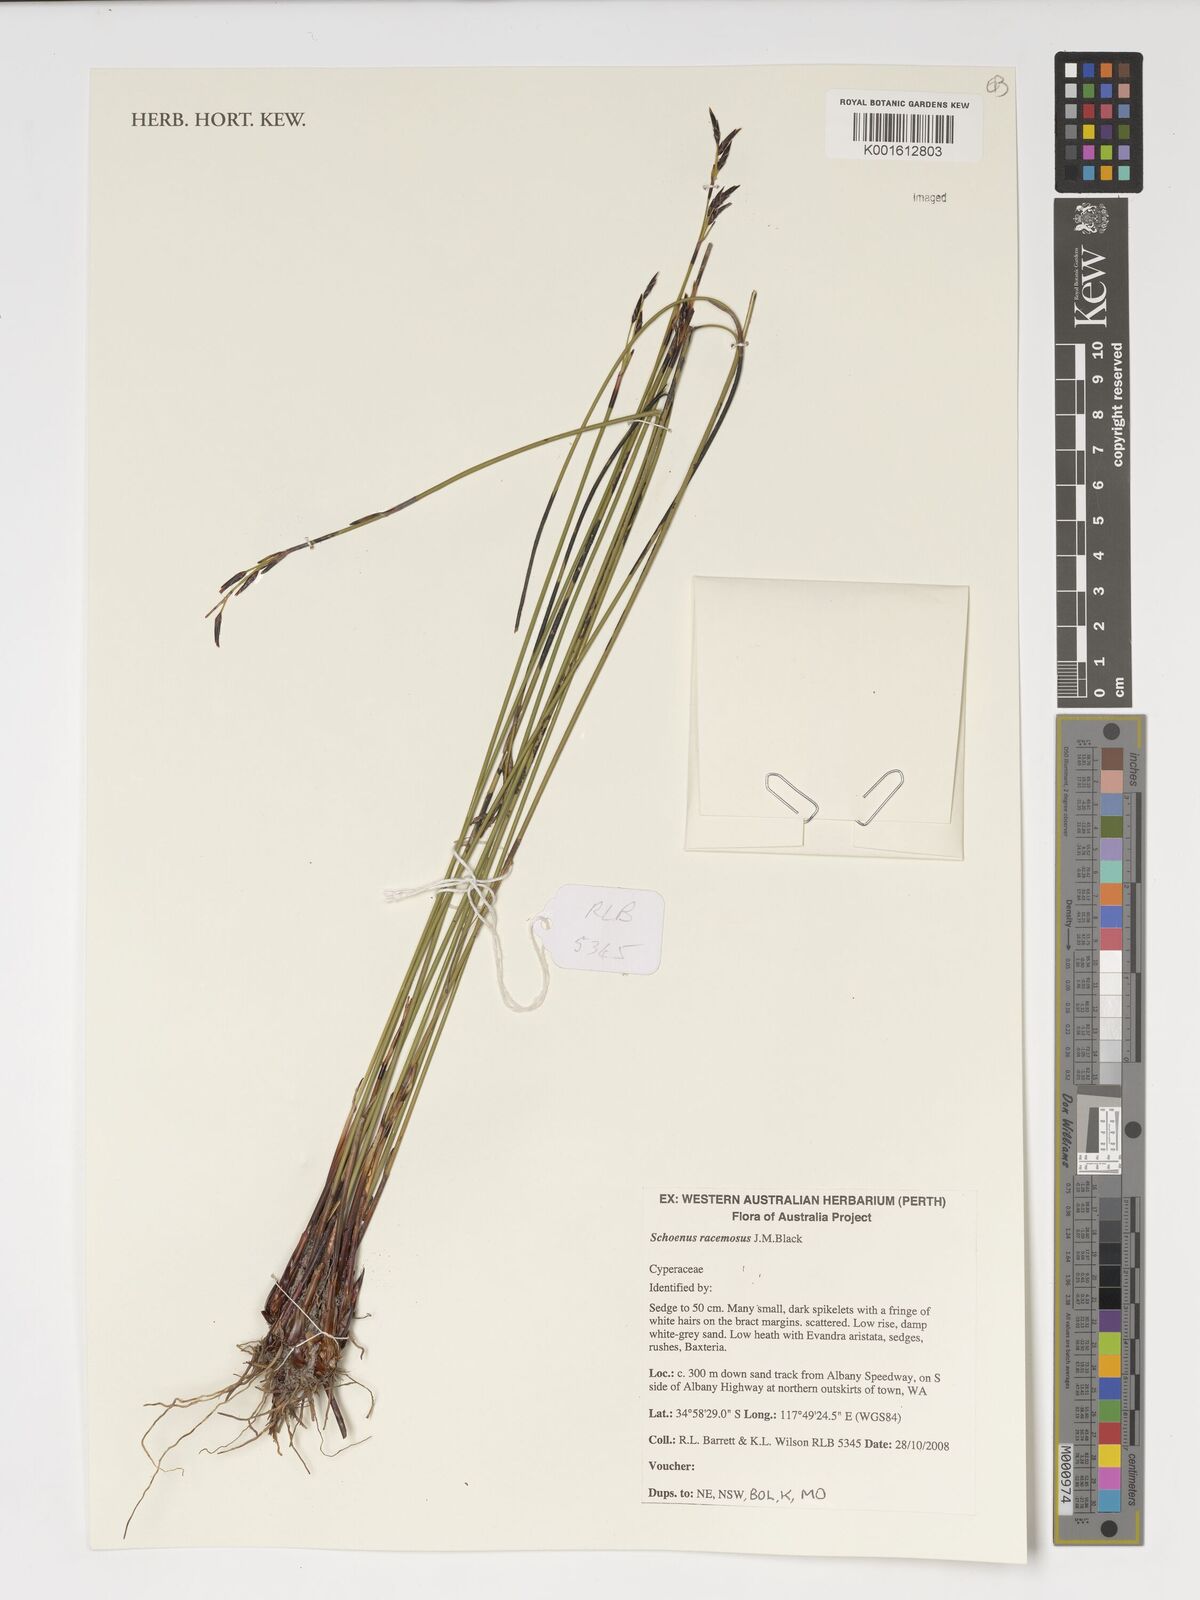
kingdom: Plantae
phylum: Tracheophyta
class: Liliopsida
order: Poales
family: Cyperaceae
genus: Schoenus
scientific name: Schoenus racemosus
